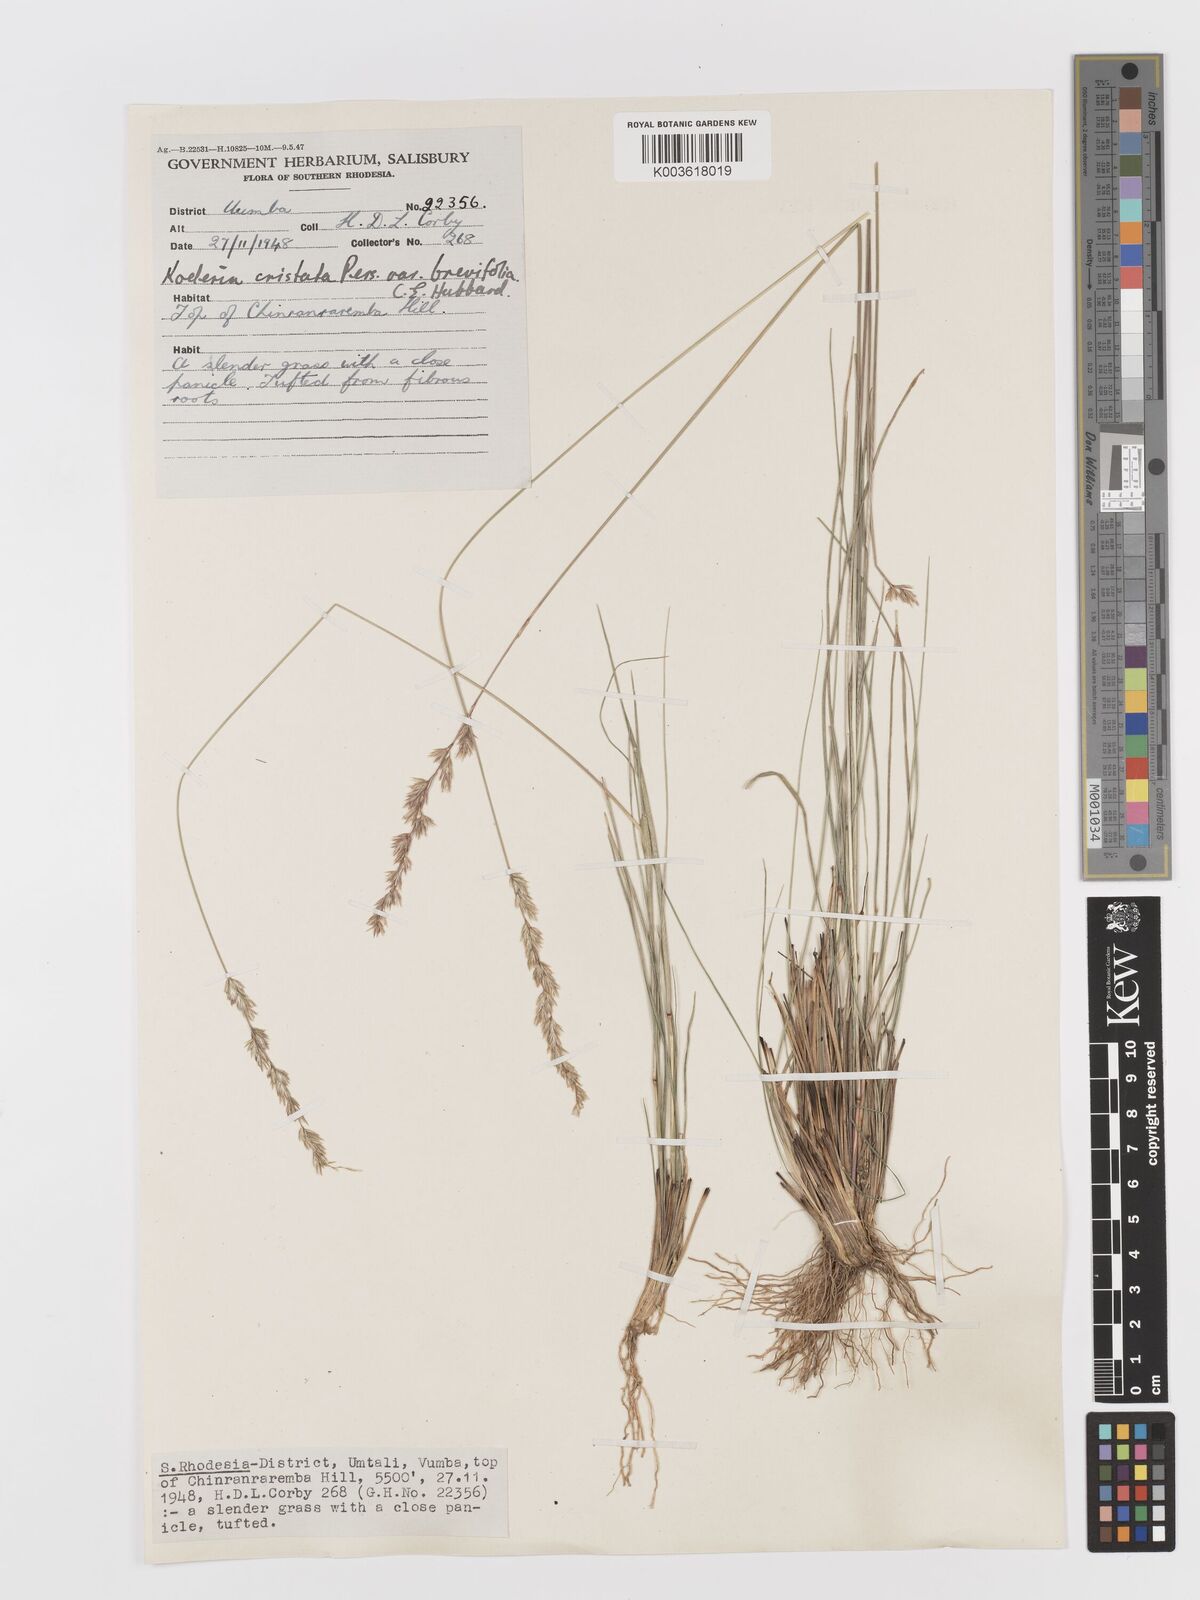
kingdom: Plantae
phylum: Tracheophyta
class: Liliopsida
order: Poales
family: Poaceae
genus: Koeleria
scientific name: Koeleria capensis
